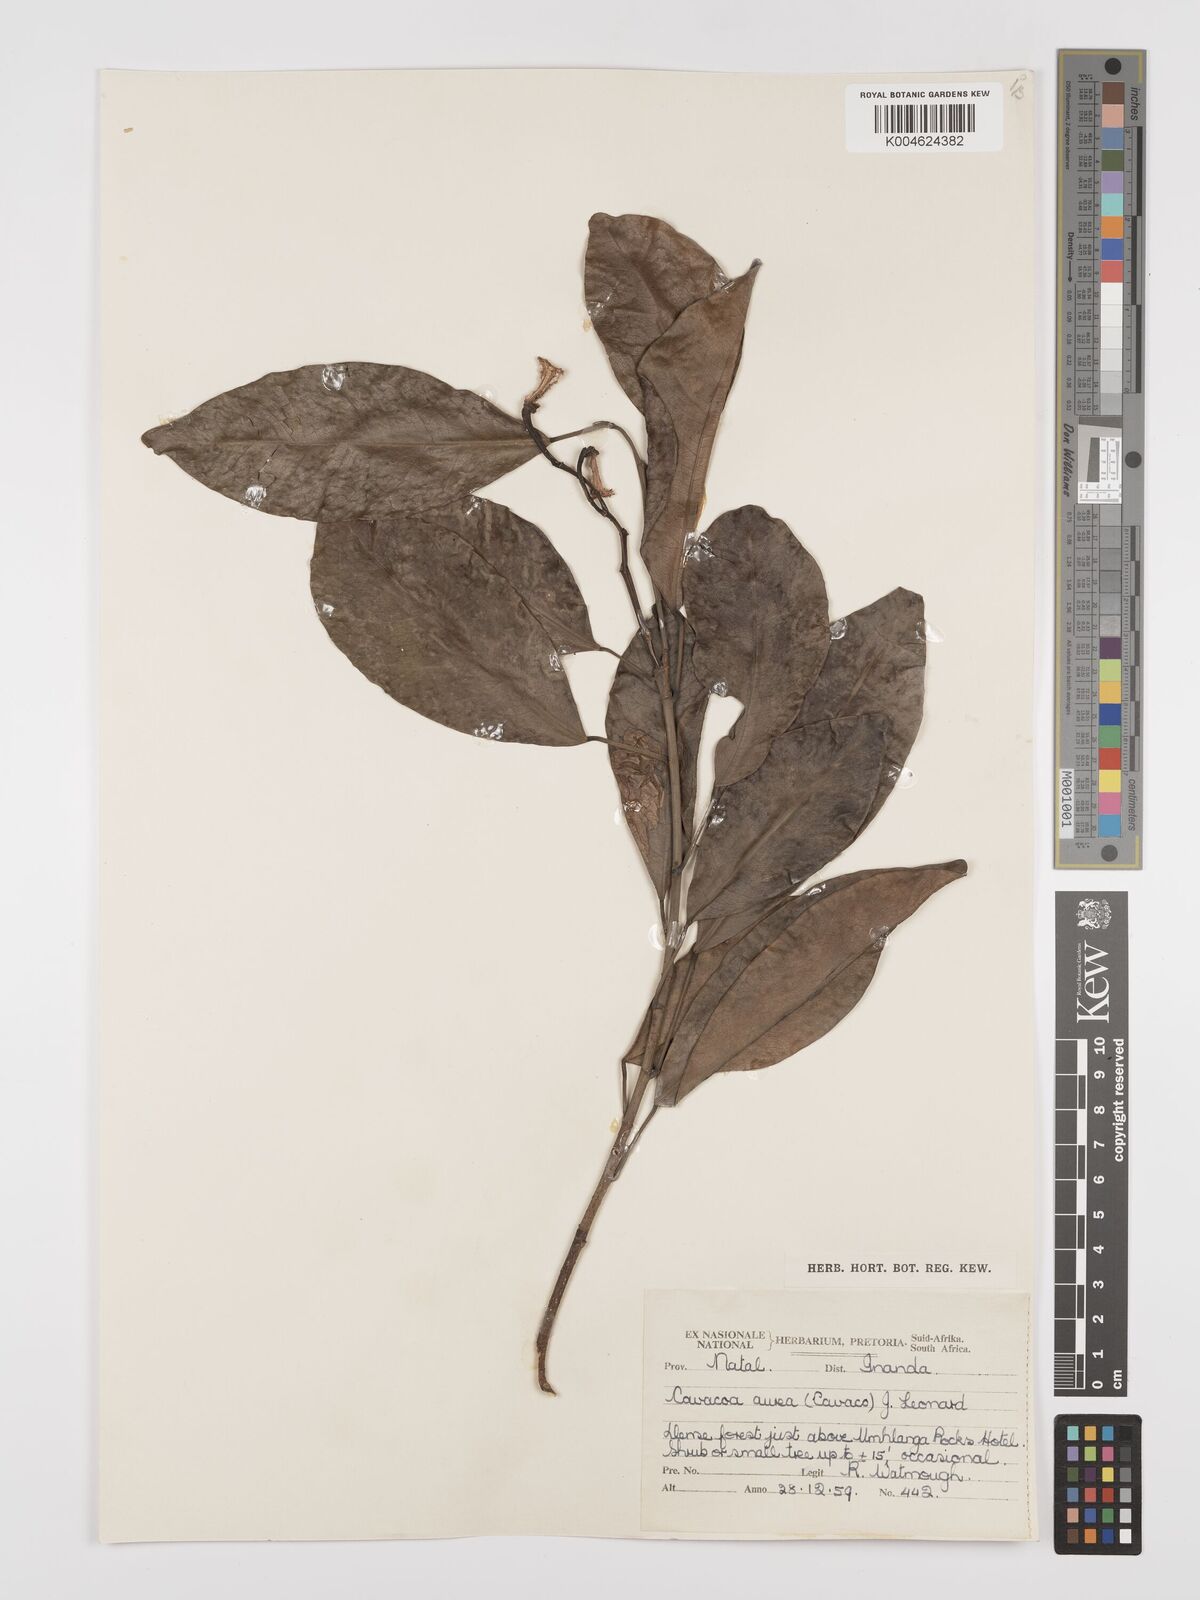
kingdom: Plantae
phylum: Tracheophyta
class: Magnoliopsida
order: Malpighiales
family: Euphorbiaceae
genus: Cavacoa
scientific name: Cavacoa aurea
